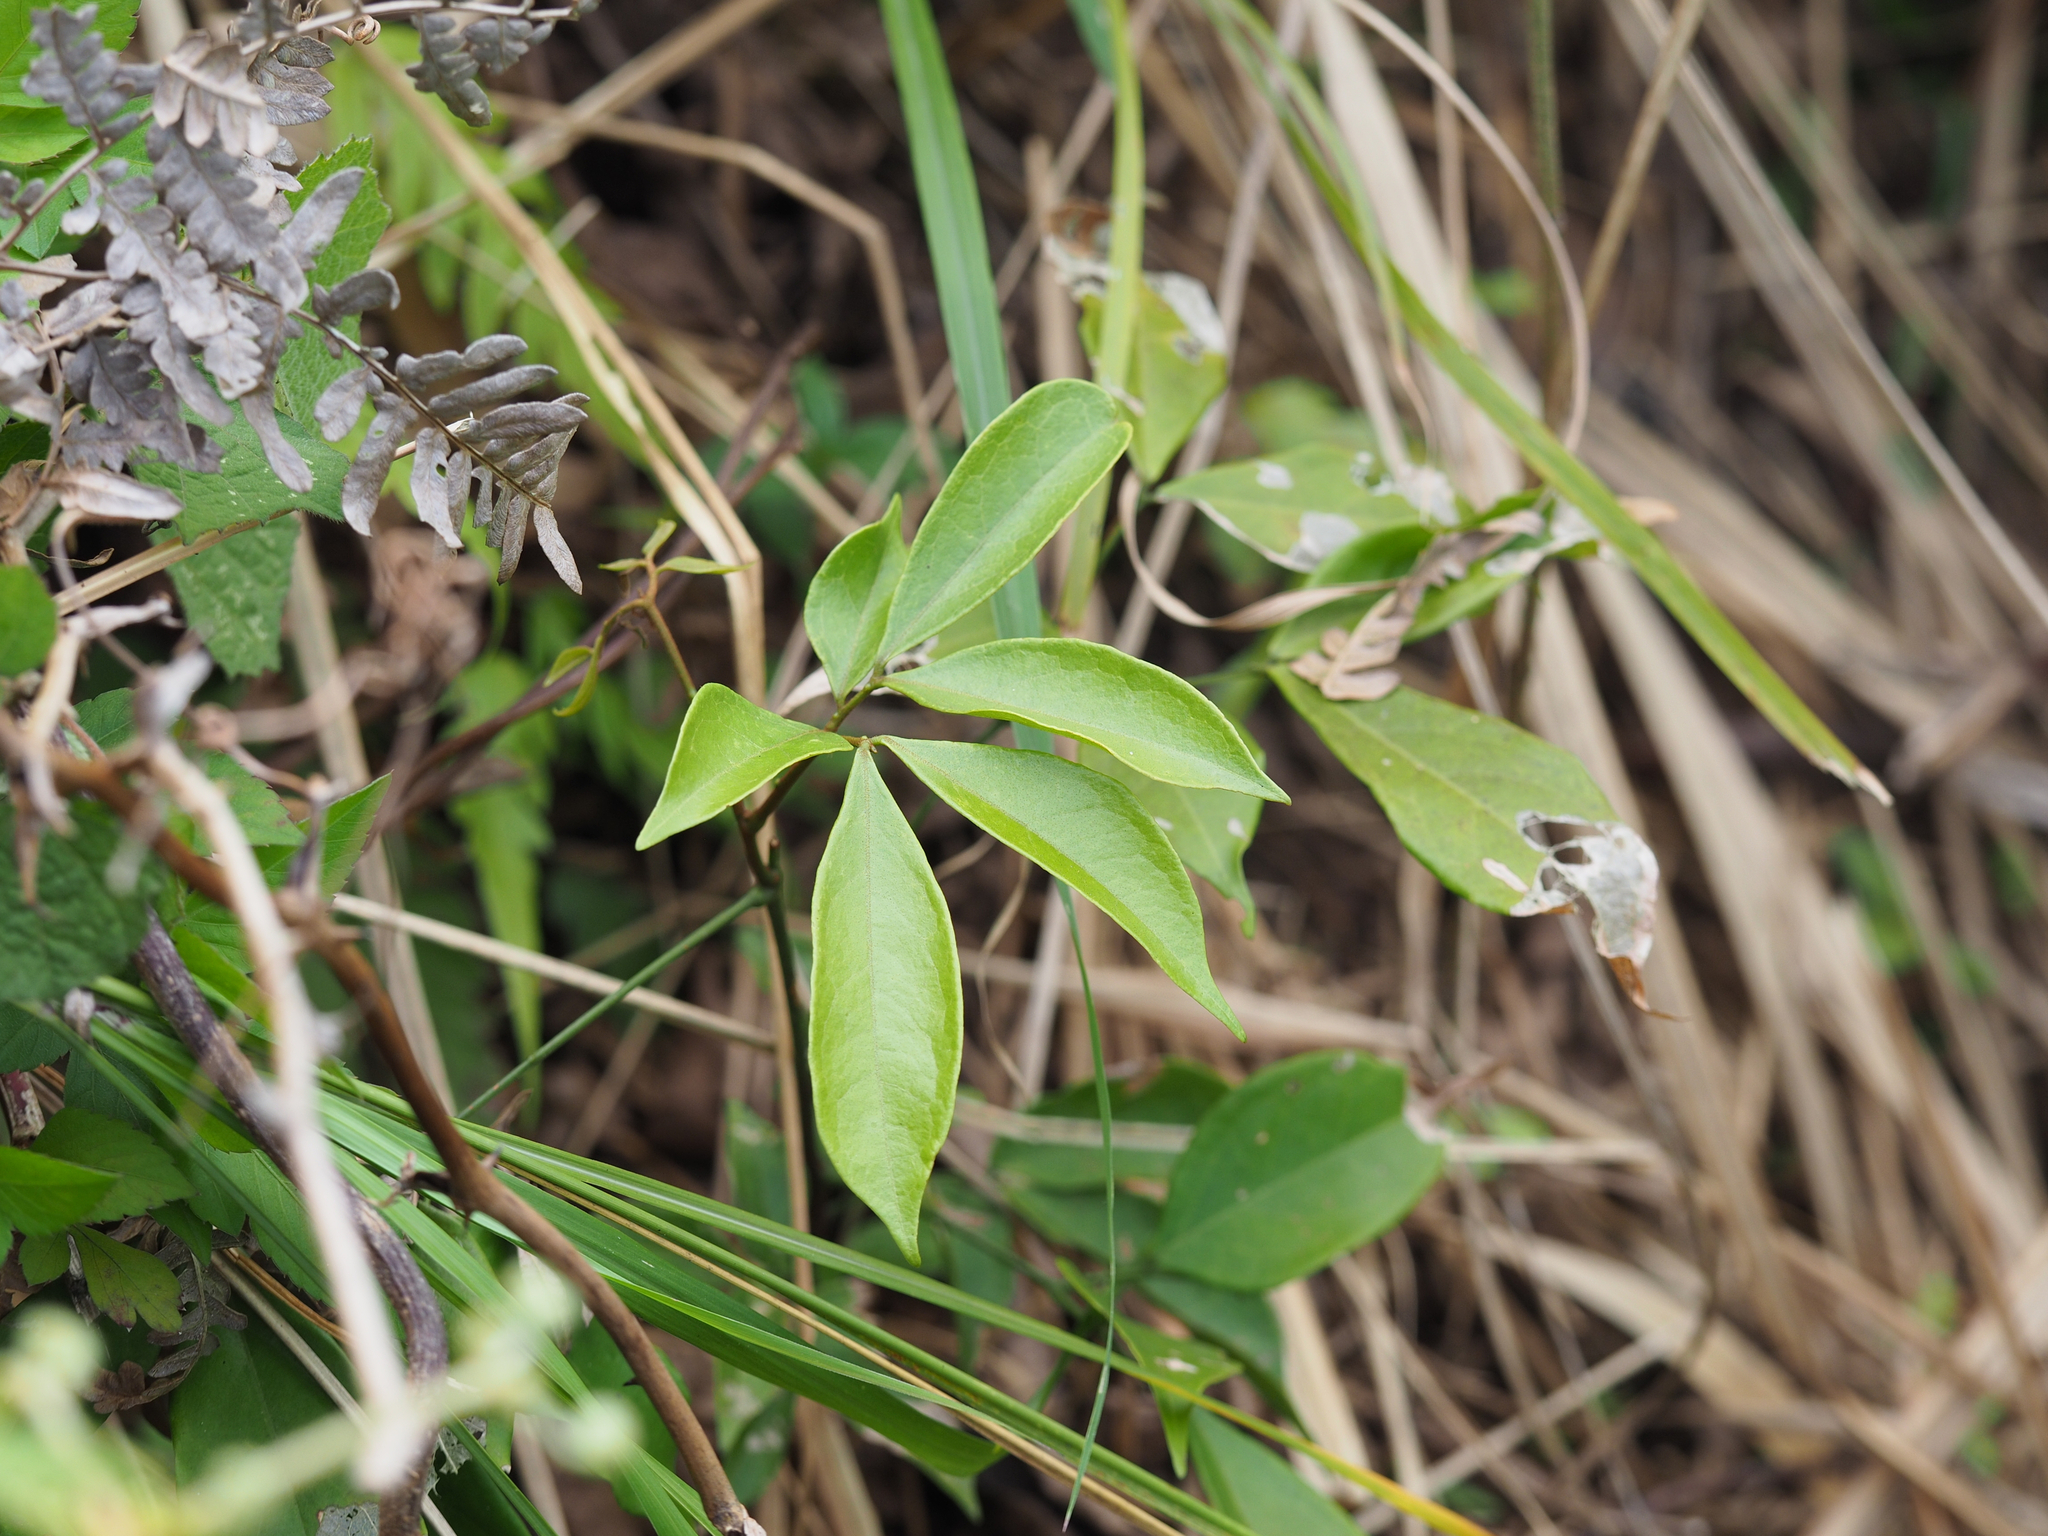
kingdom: Plantae
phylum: Tracheophyta
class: Magnoliopsida
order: Fabales
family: Fabaceae
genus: Archidendron
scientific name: Archidendron lucidum
